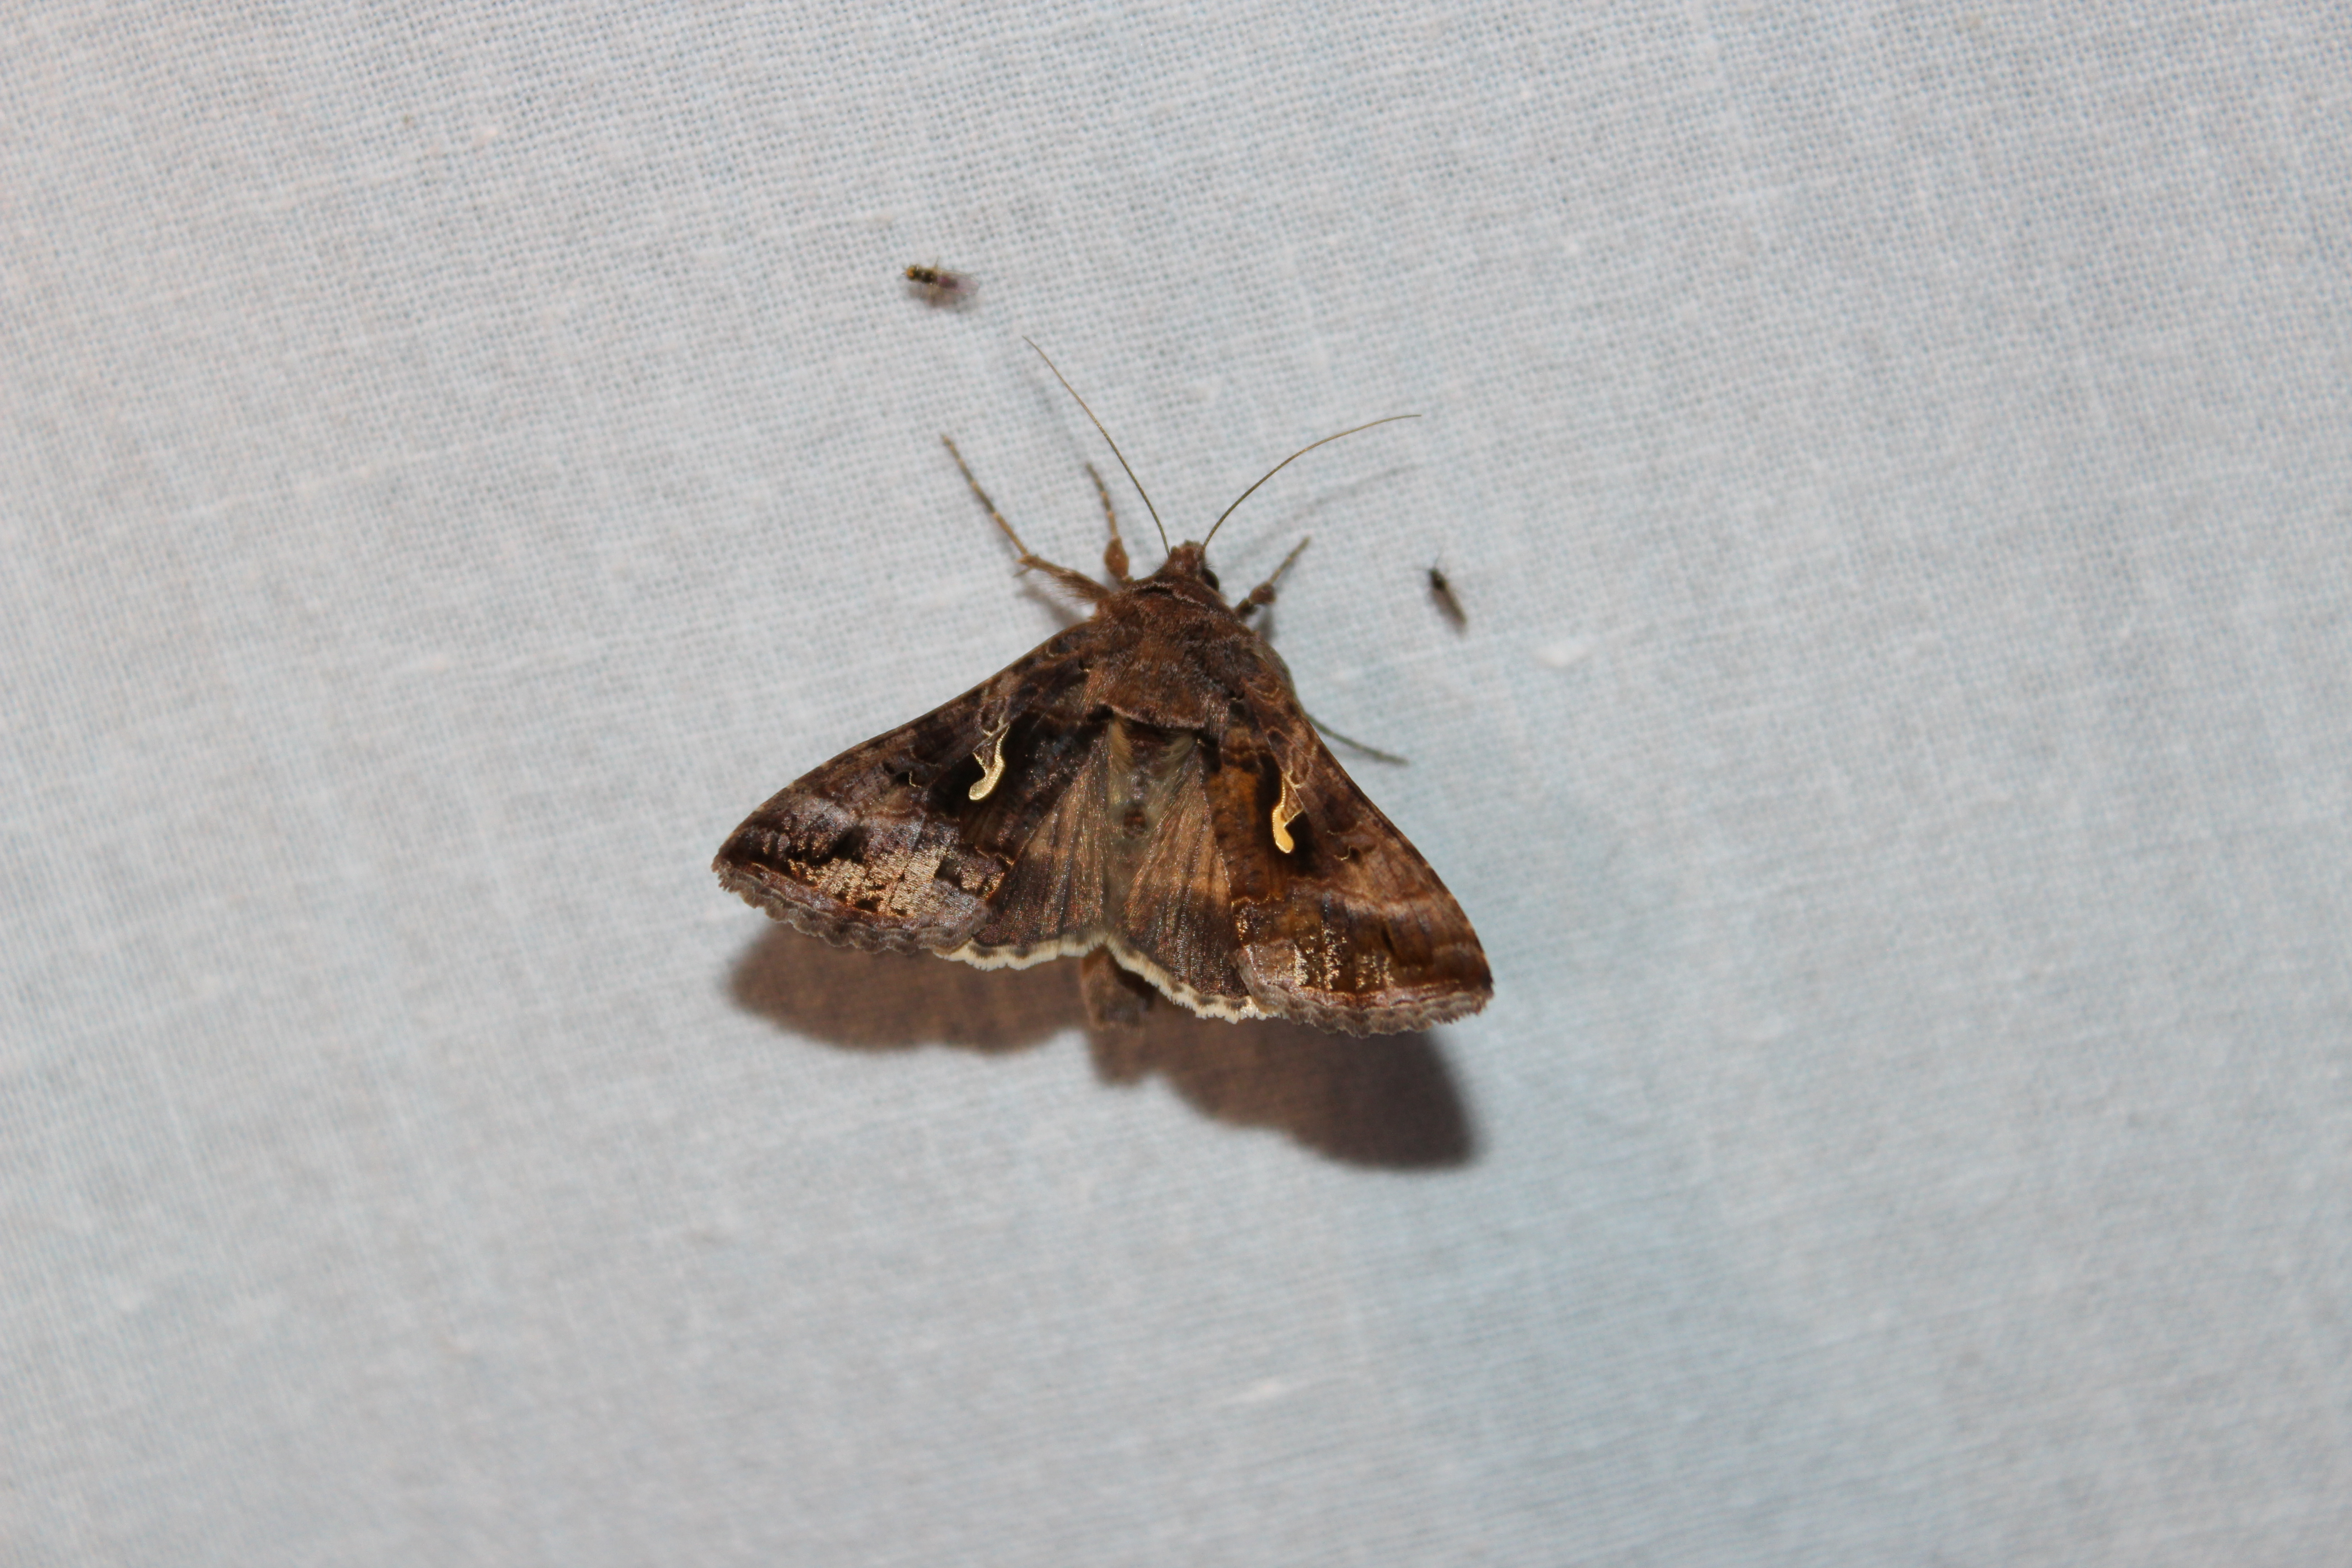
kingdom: Animalia
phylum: Arthropoda
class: Insecta
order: Lepidoptera
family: Noctuidae
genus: Autographa
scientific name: Autographa gamma
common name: Silver y
